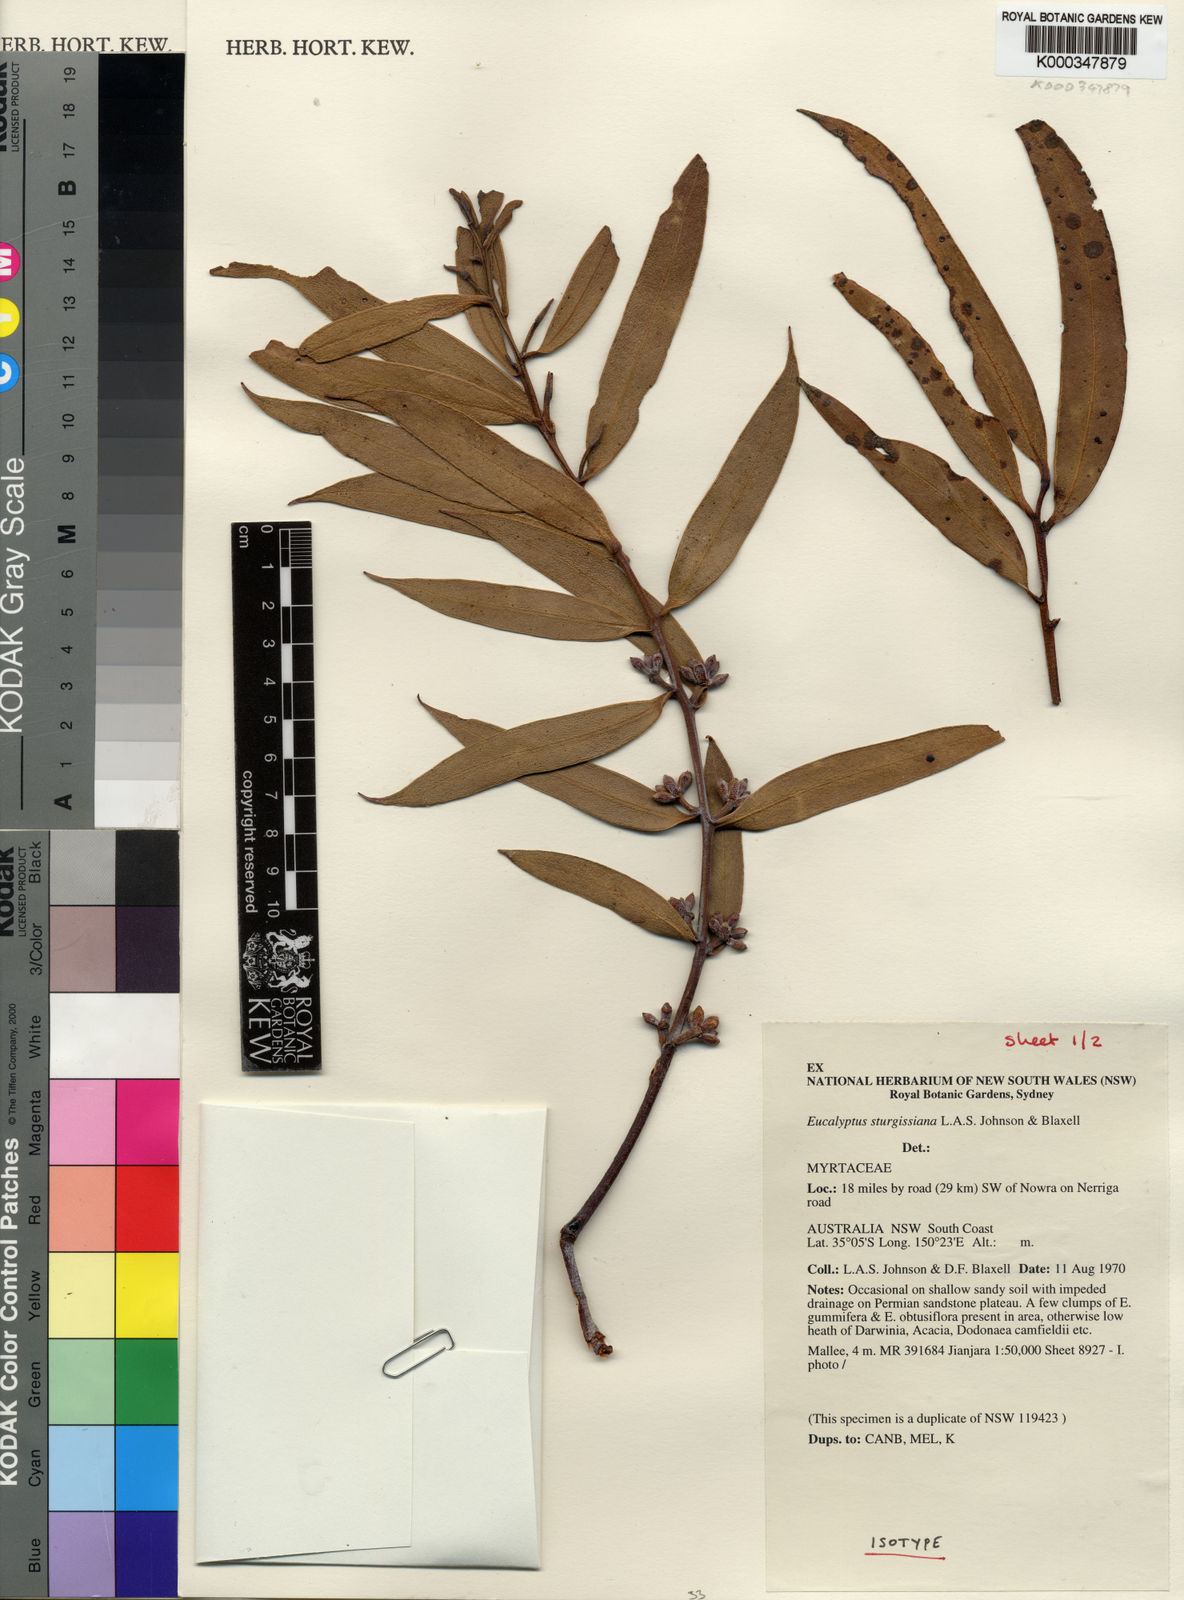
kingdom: Plantae
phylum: Tracheophyta
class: Magnoliopsida
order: Myrtales
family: Myrtaceae
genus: Eucalyptus
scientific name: Eucalyptus sturgissiana
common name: Ettrema mallee
